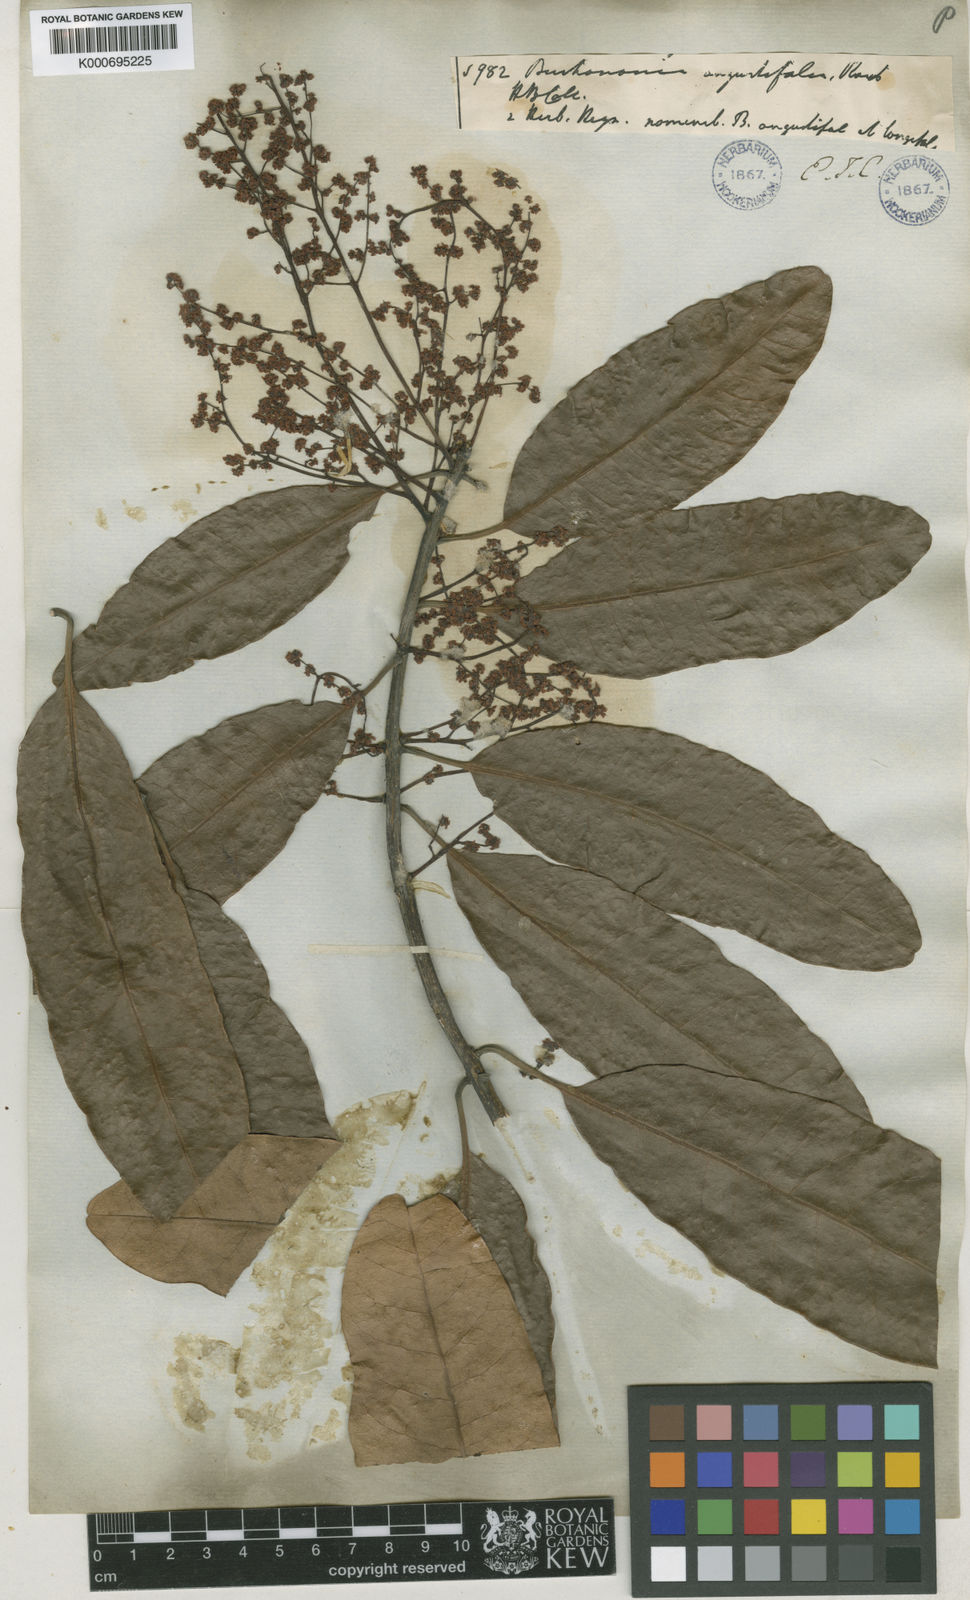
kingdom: Plantae
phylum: Tracheophyta
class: Magnoliopsida
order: Sapindales
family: Anacardiaceae
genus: Buchanania
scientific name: Buchanania axillaris
